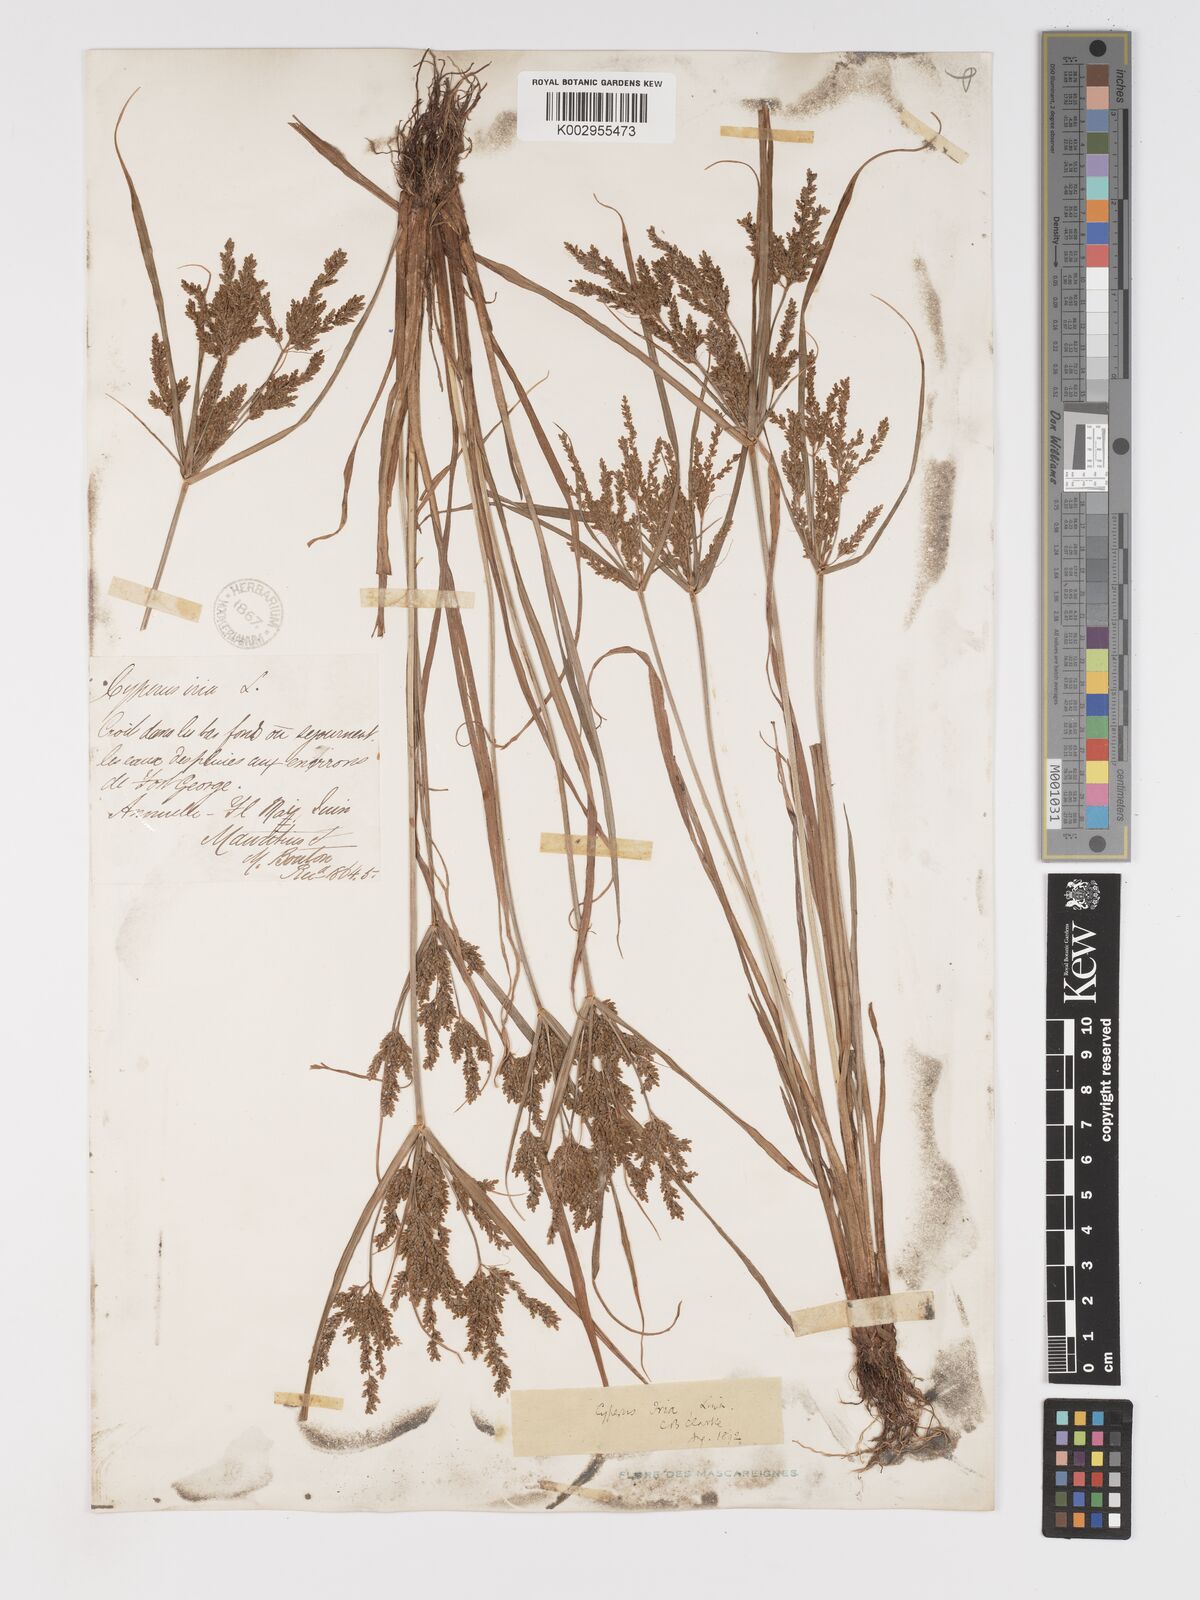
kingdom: Plantae
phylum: Tracheophyta
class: Liliopsida
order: Poales
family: Cyperaceae
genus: Cyperus
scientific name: Cyperus iria
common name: Ricefield flatsedge
